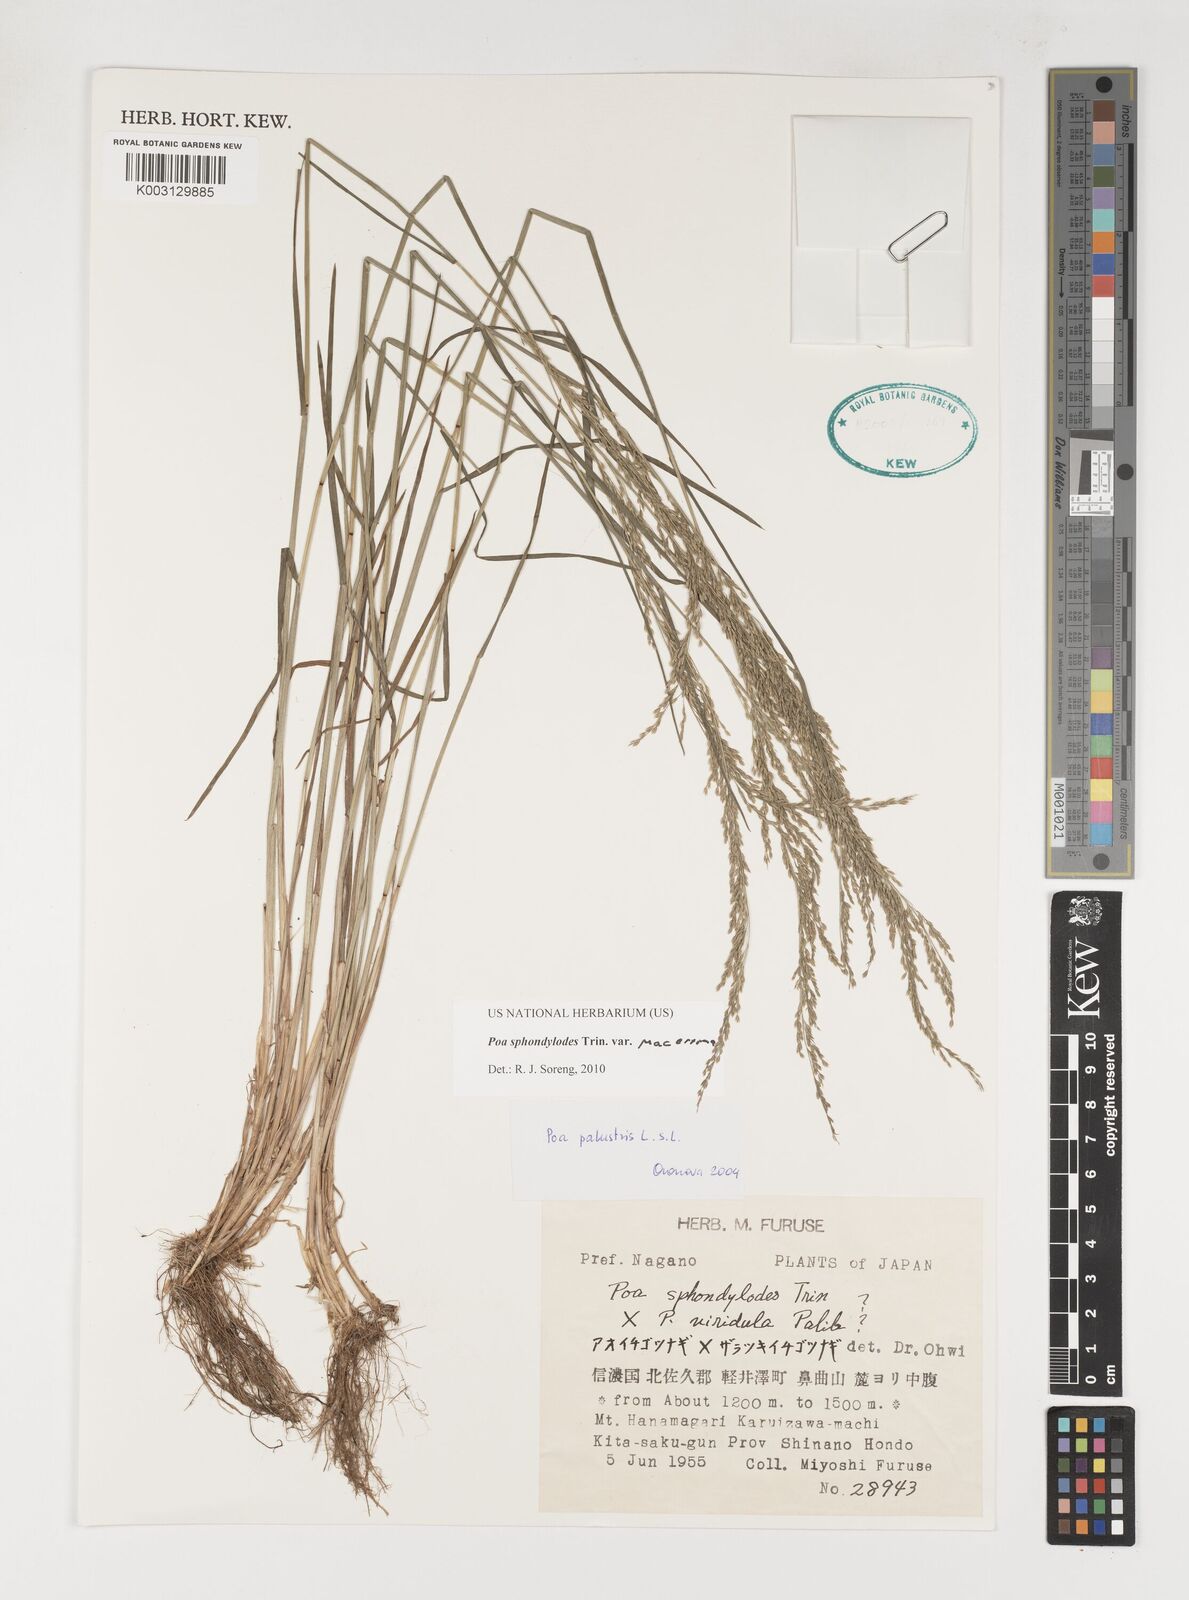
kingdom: Plantae
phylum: Tracheophyta
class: Liliopsida
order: Poales
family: Poaceae
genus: Poa
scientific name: Poa sphondylodes
